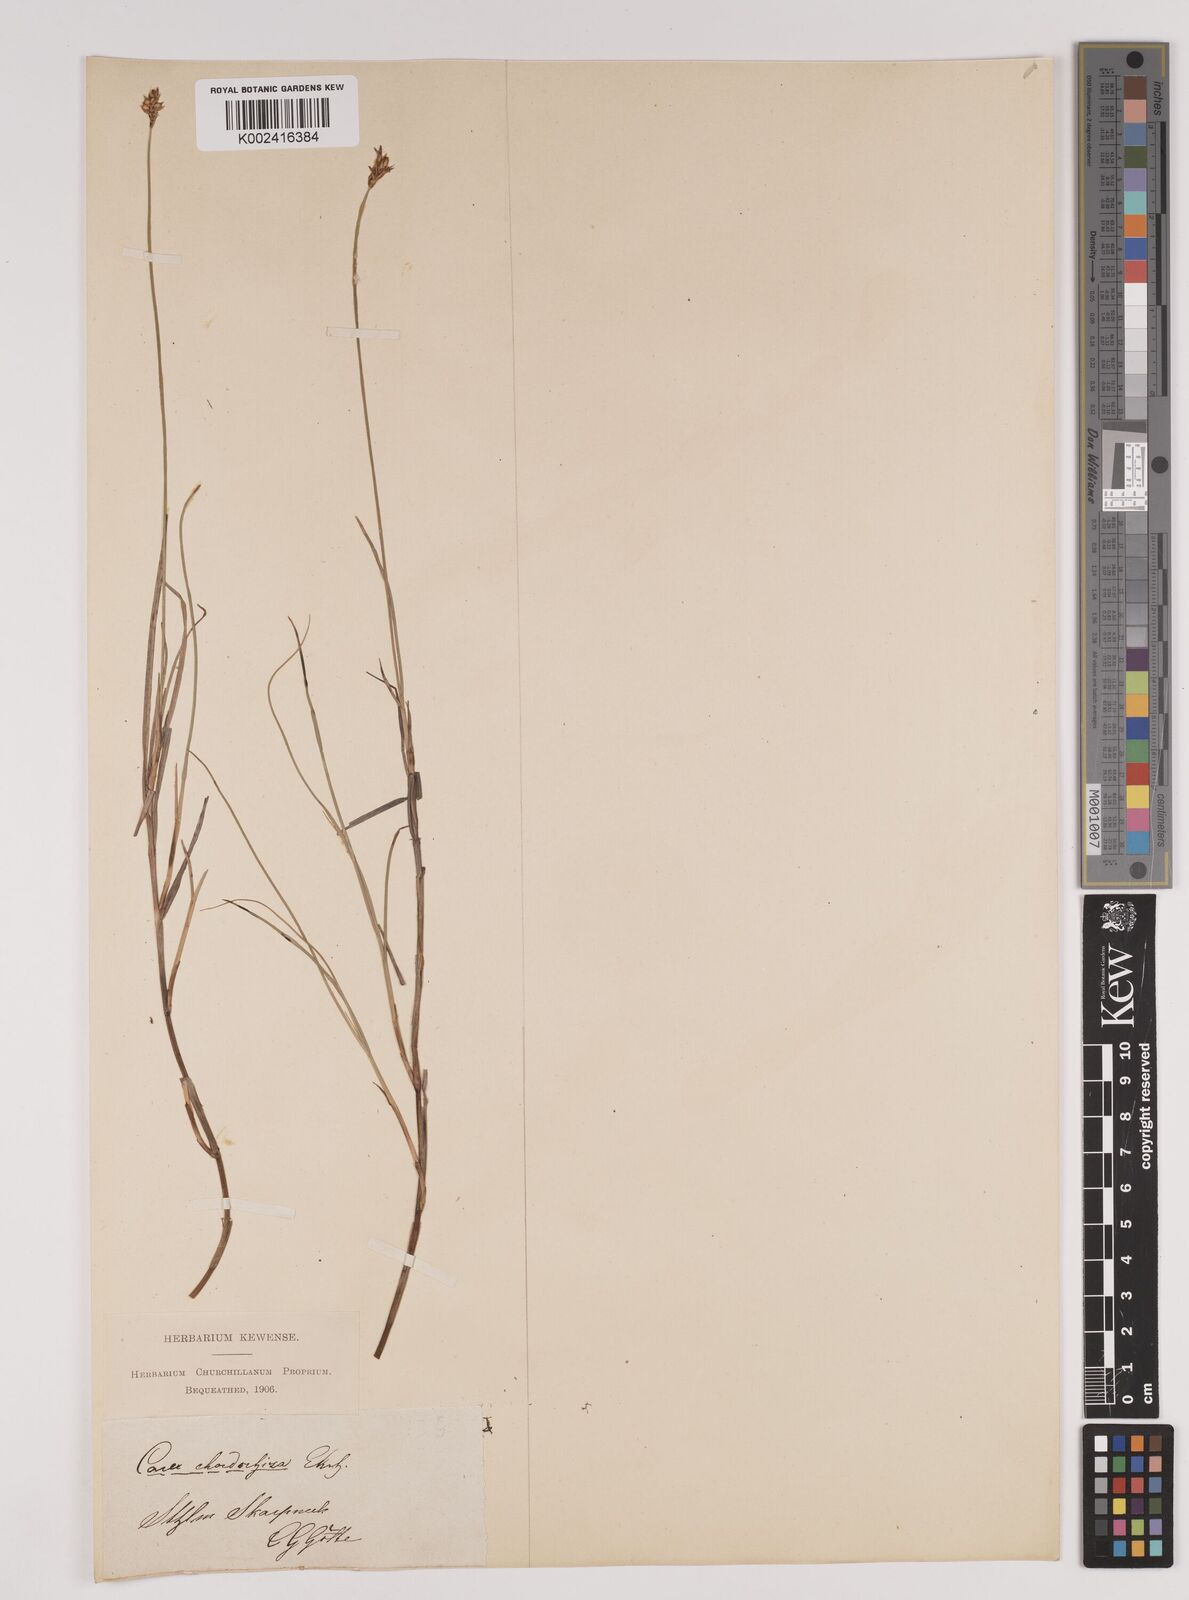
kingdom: Plantae
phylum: Tracheophyta
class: Liliopsida
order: Poales
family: Cyperaceae
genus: Carex
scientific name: Carex chordorrhiza
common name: String sedge
